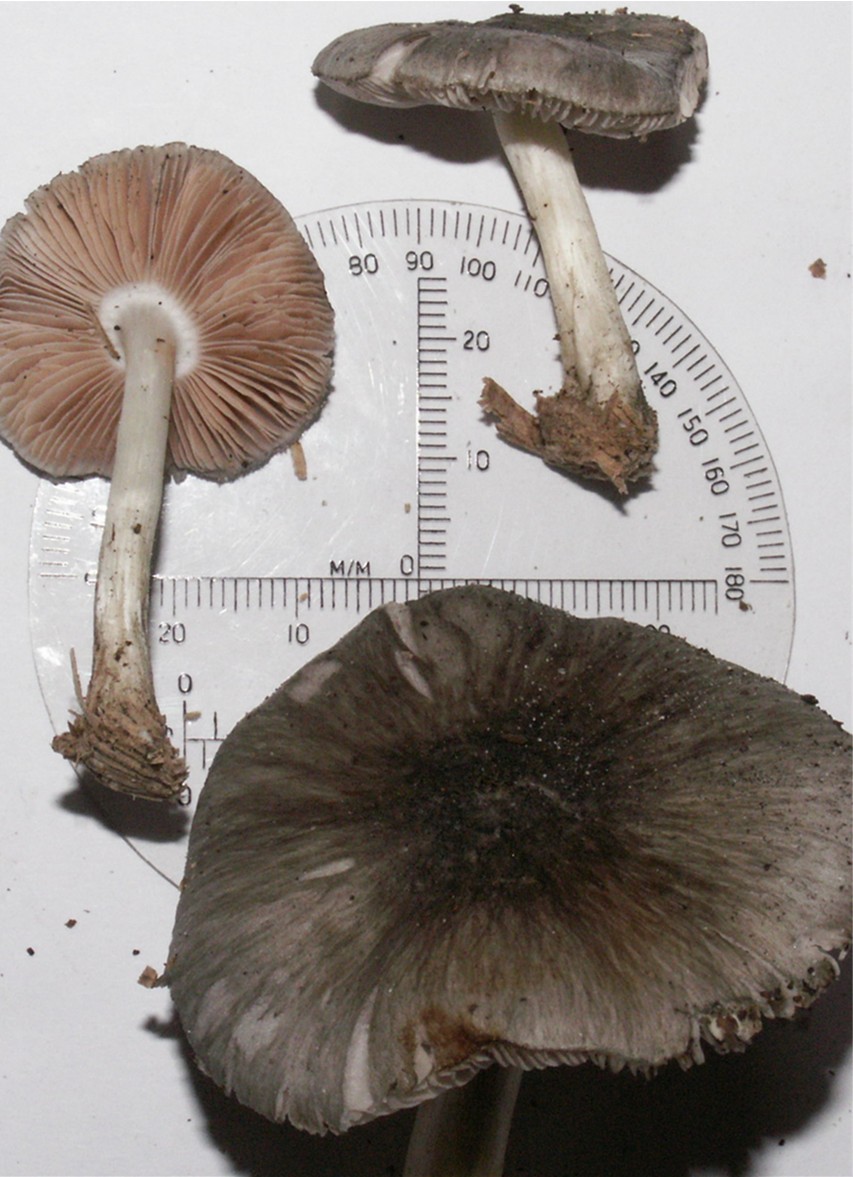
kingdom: Fungi
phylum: Basidiomycota
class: Agaricomycetes
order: Agaricales
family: Pluteaceae
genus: Pluteus
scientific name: Pluteus salicinus
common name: stiv skærmhat
